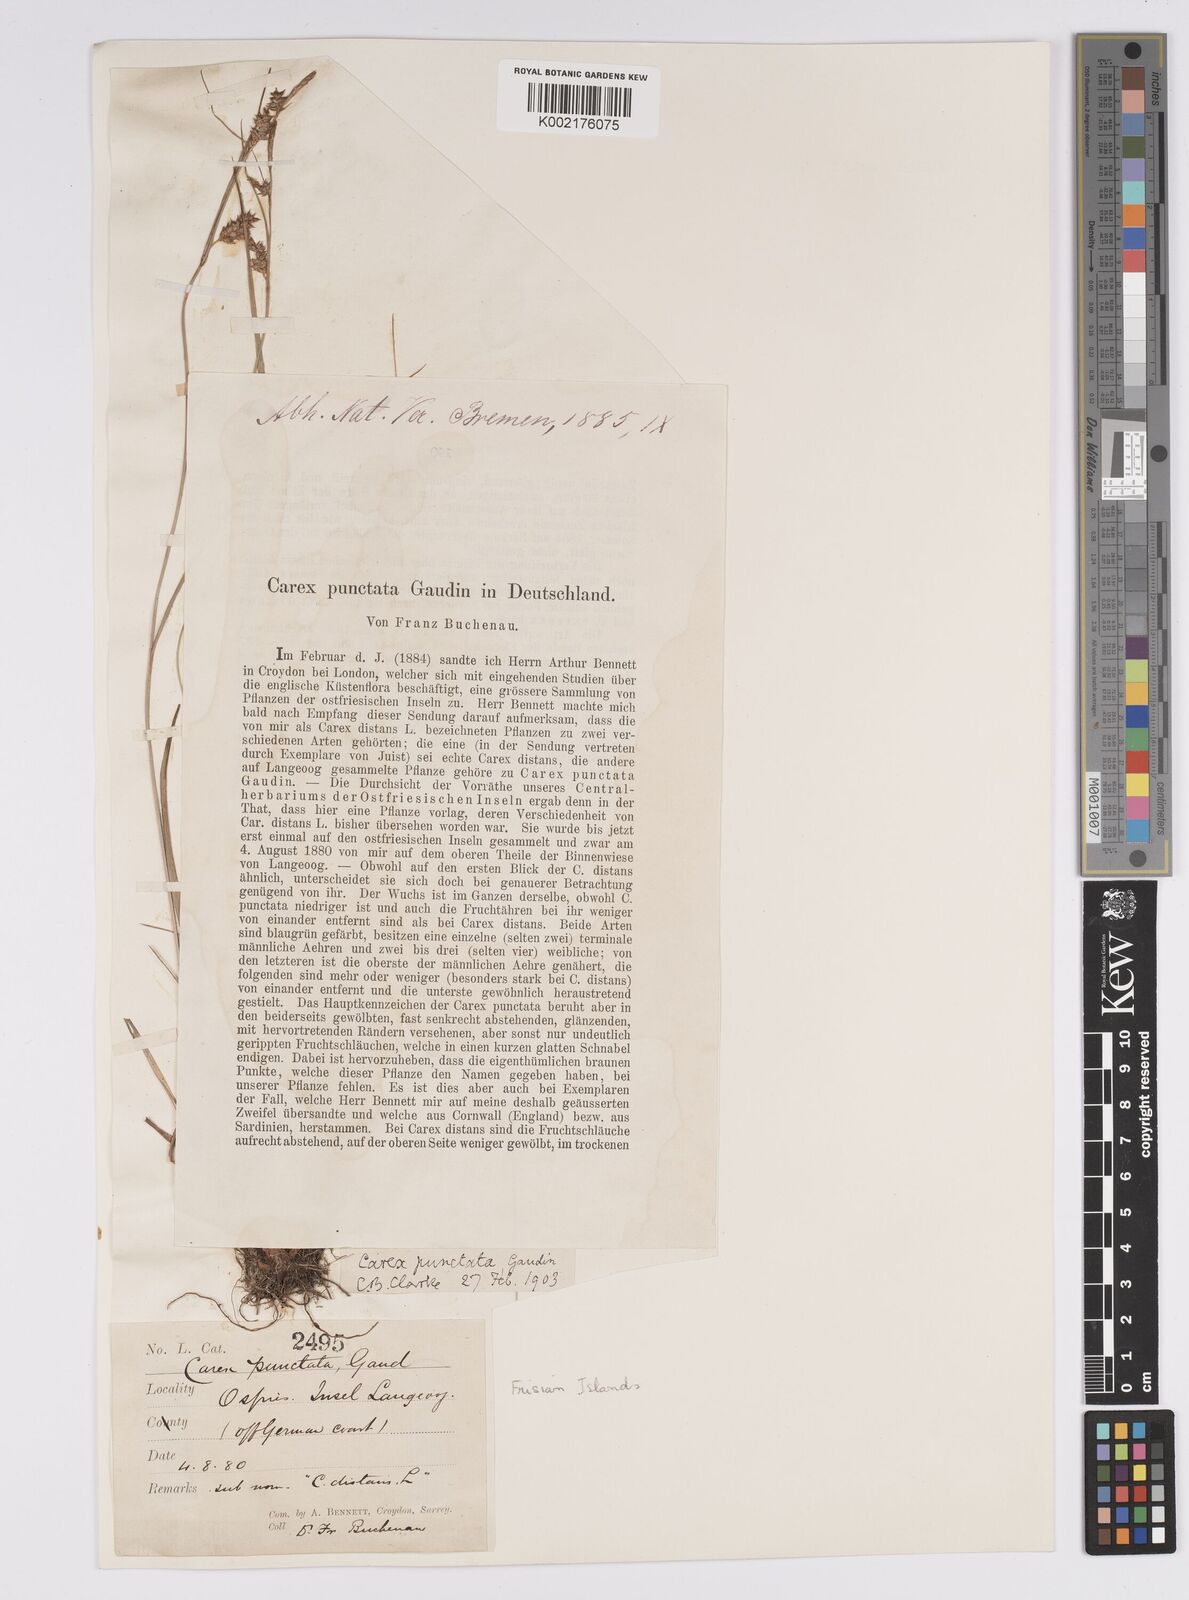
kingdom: Plantae
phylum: Tracheophyta
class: Liliopsida
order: Poales
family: Cyperaceae
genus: Carex
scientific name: Carex punctata
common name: Dotted sedge
